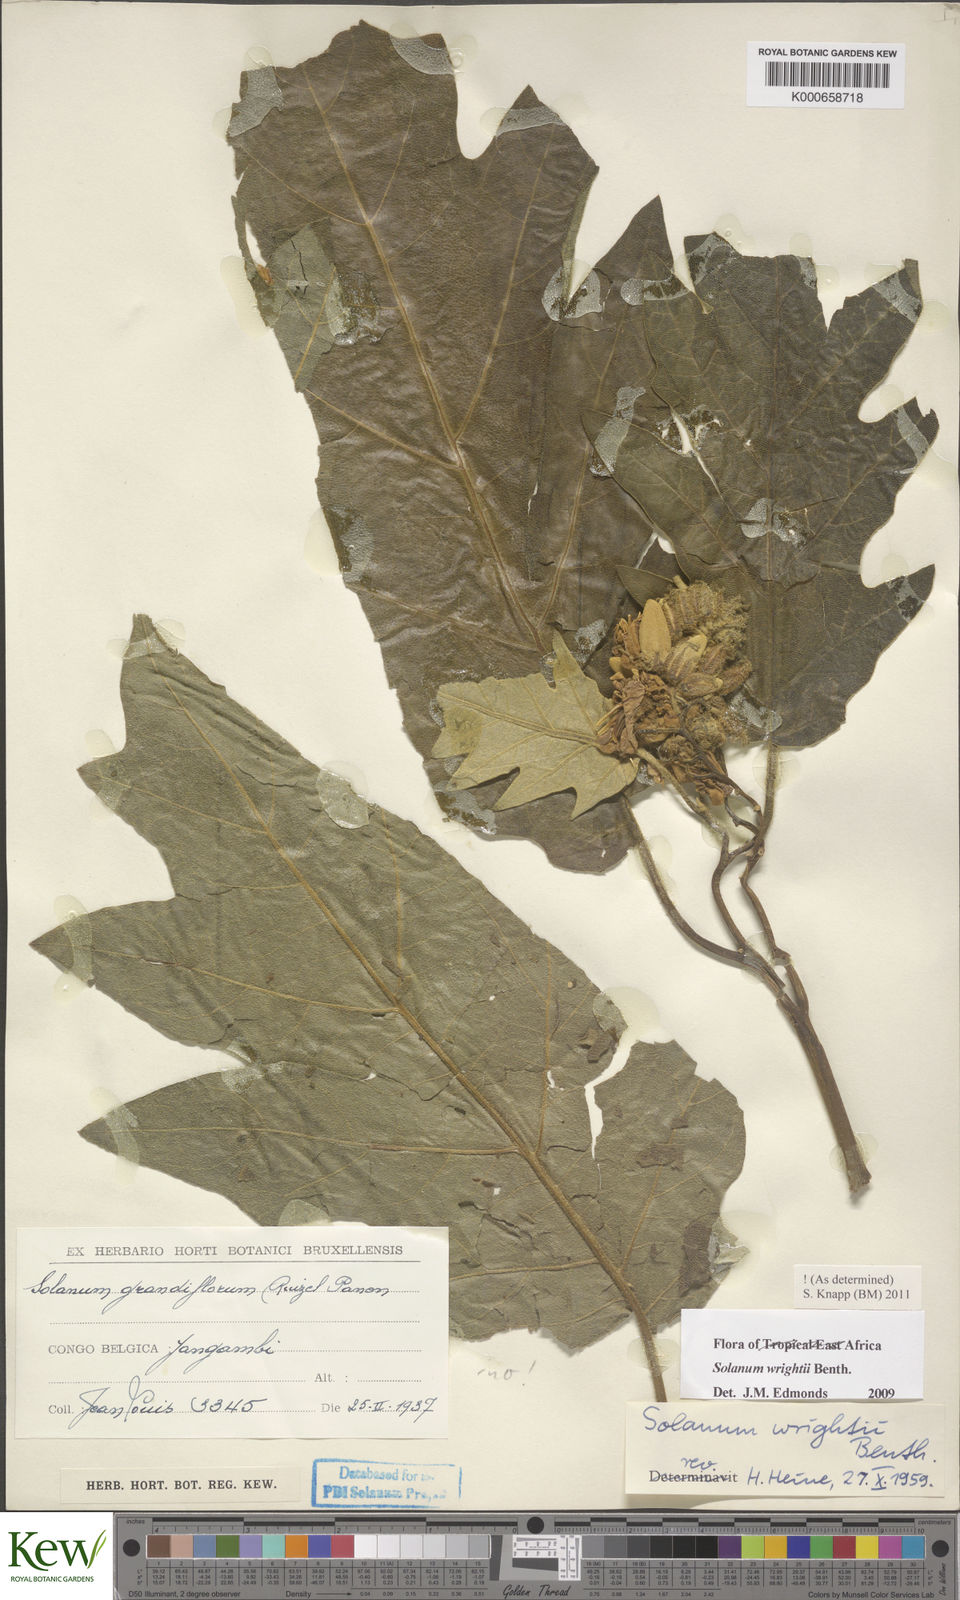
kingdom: Plantae
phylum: Tracheophyta
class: Magnoliopsida
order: Solanales
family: Solanaceae
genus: Solanum
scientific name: Solanum wrightii
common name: Brazilian potato-tree
